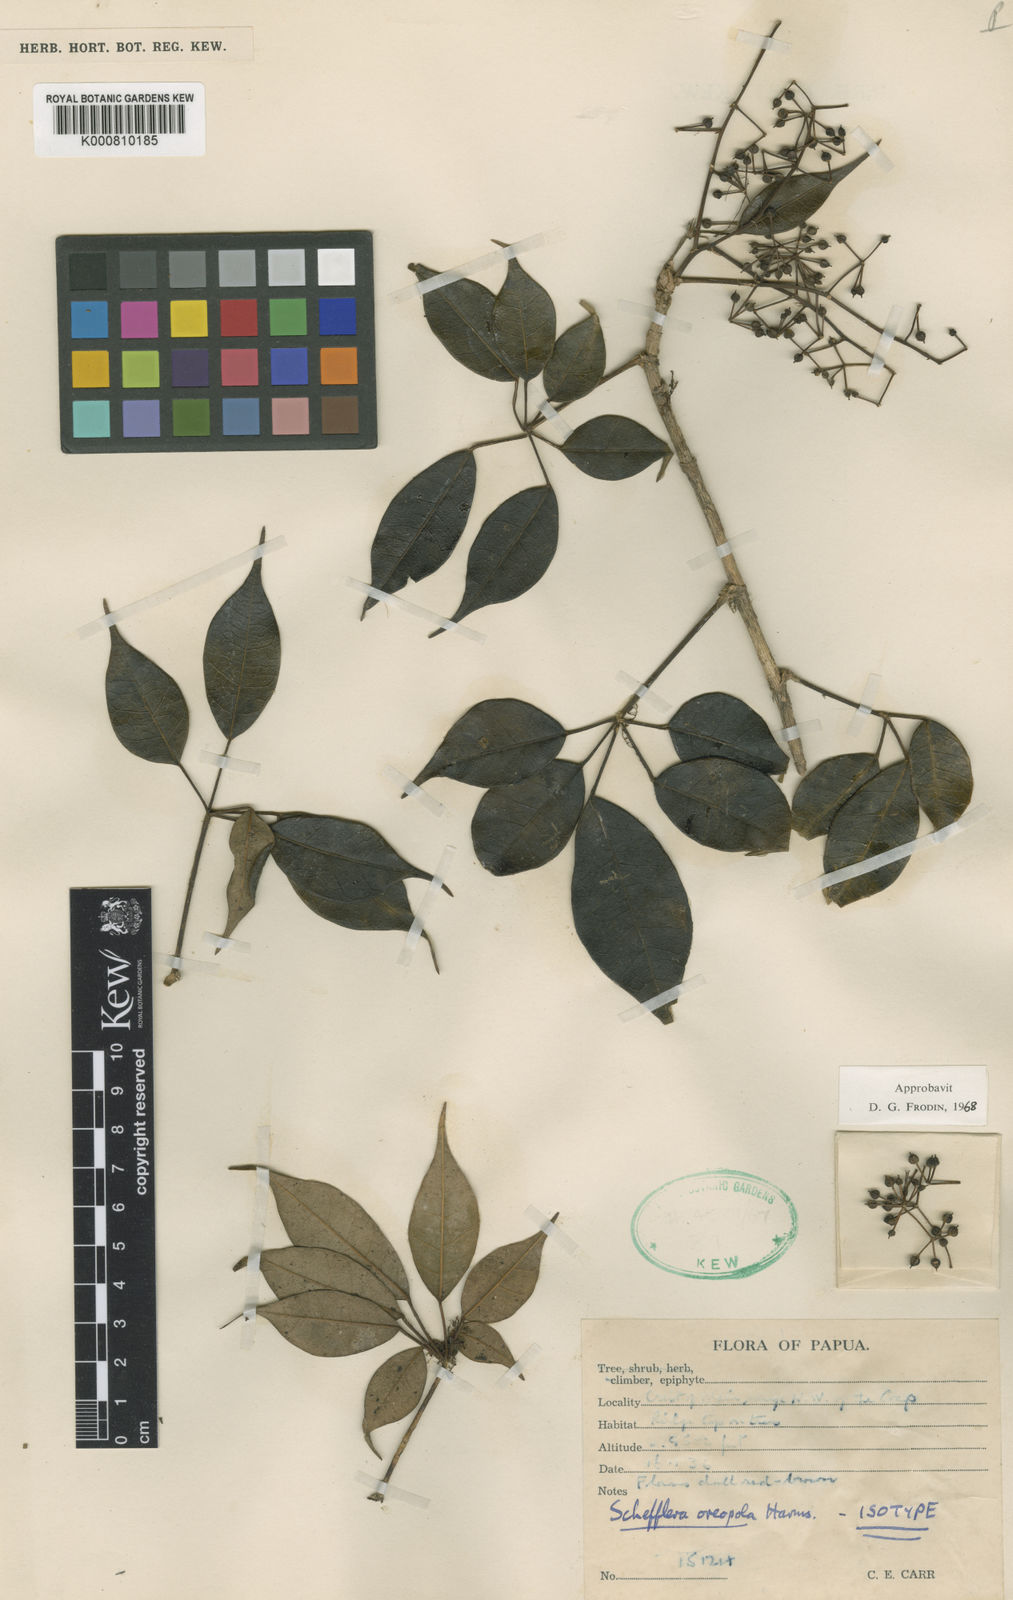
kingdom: Plantae
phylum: Tracheophyta
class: Magnoliopsida
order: Apiales
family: Araliaceae
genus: Heptapleurum
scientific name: Heptapleurum oreopolum
